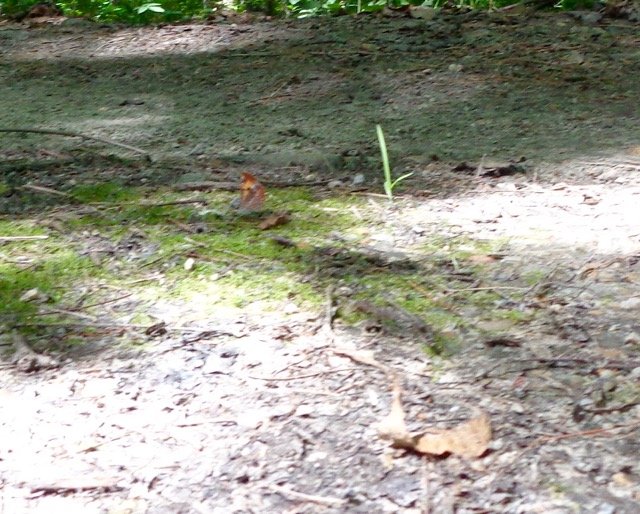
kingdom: Animalia
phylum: Arthropoda
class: Insecta
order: Lepidoptera
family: Lycaenidae
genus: Feniseca
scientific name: Feniseca tarquinius
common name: Harvester
